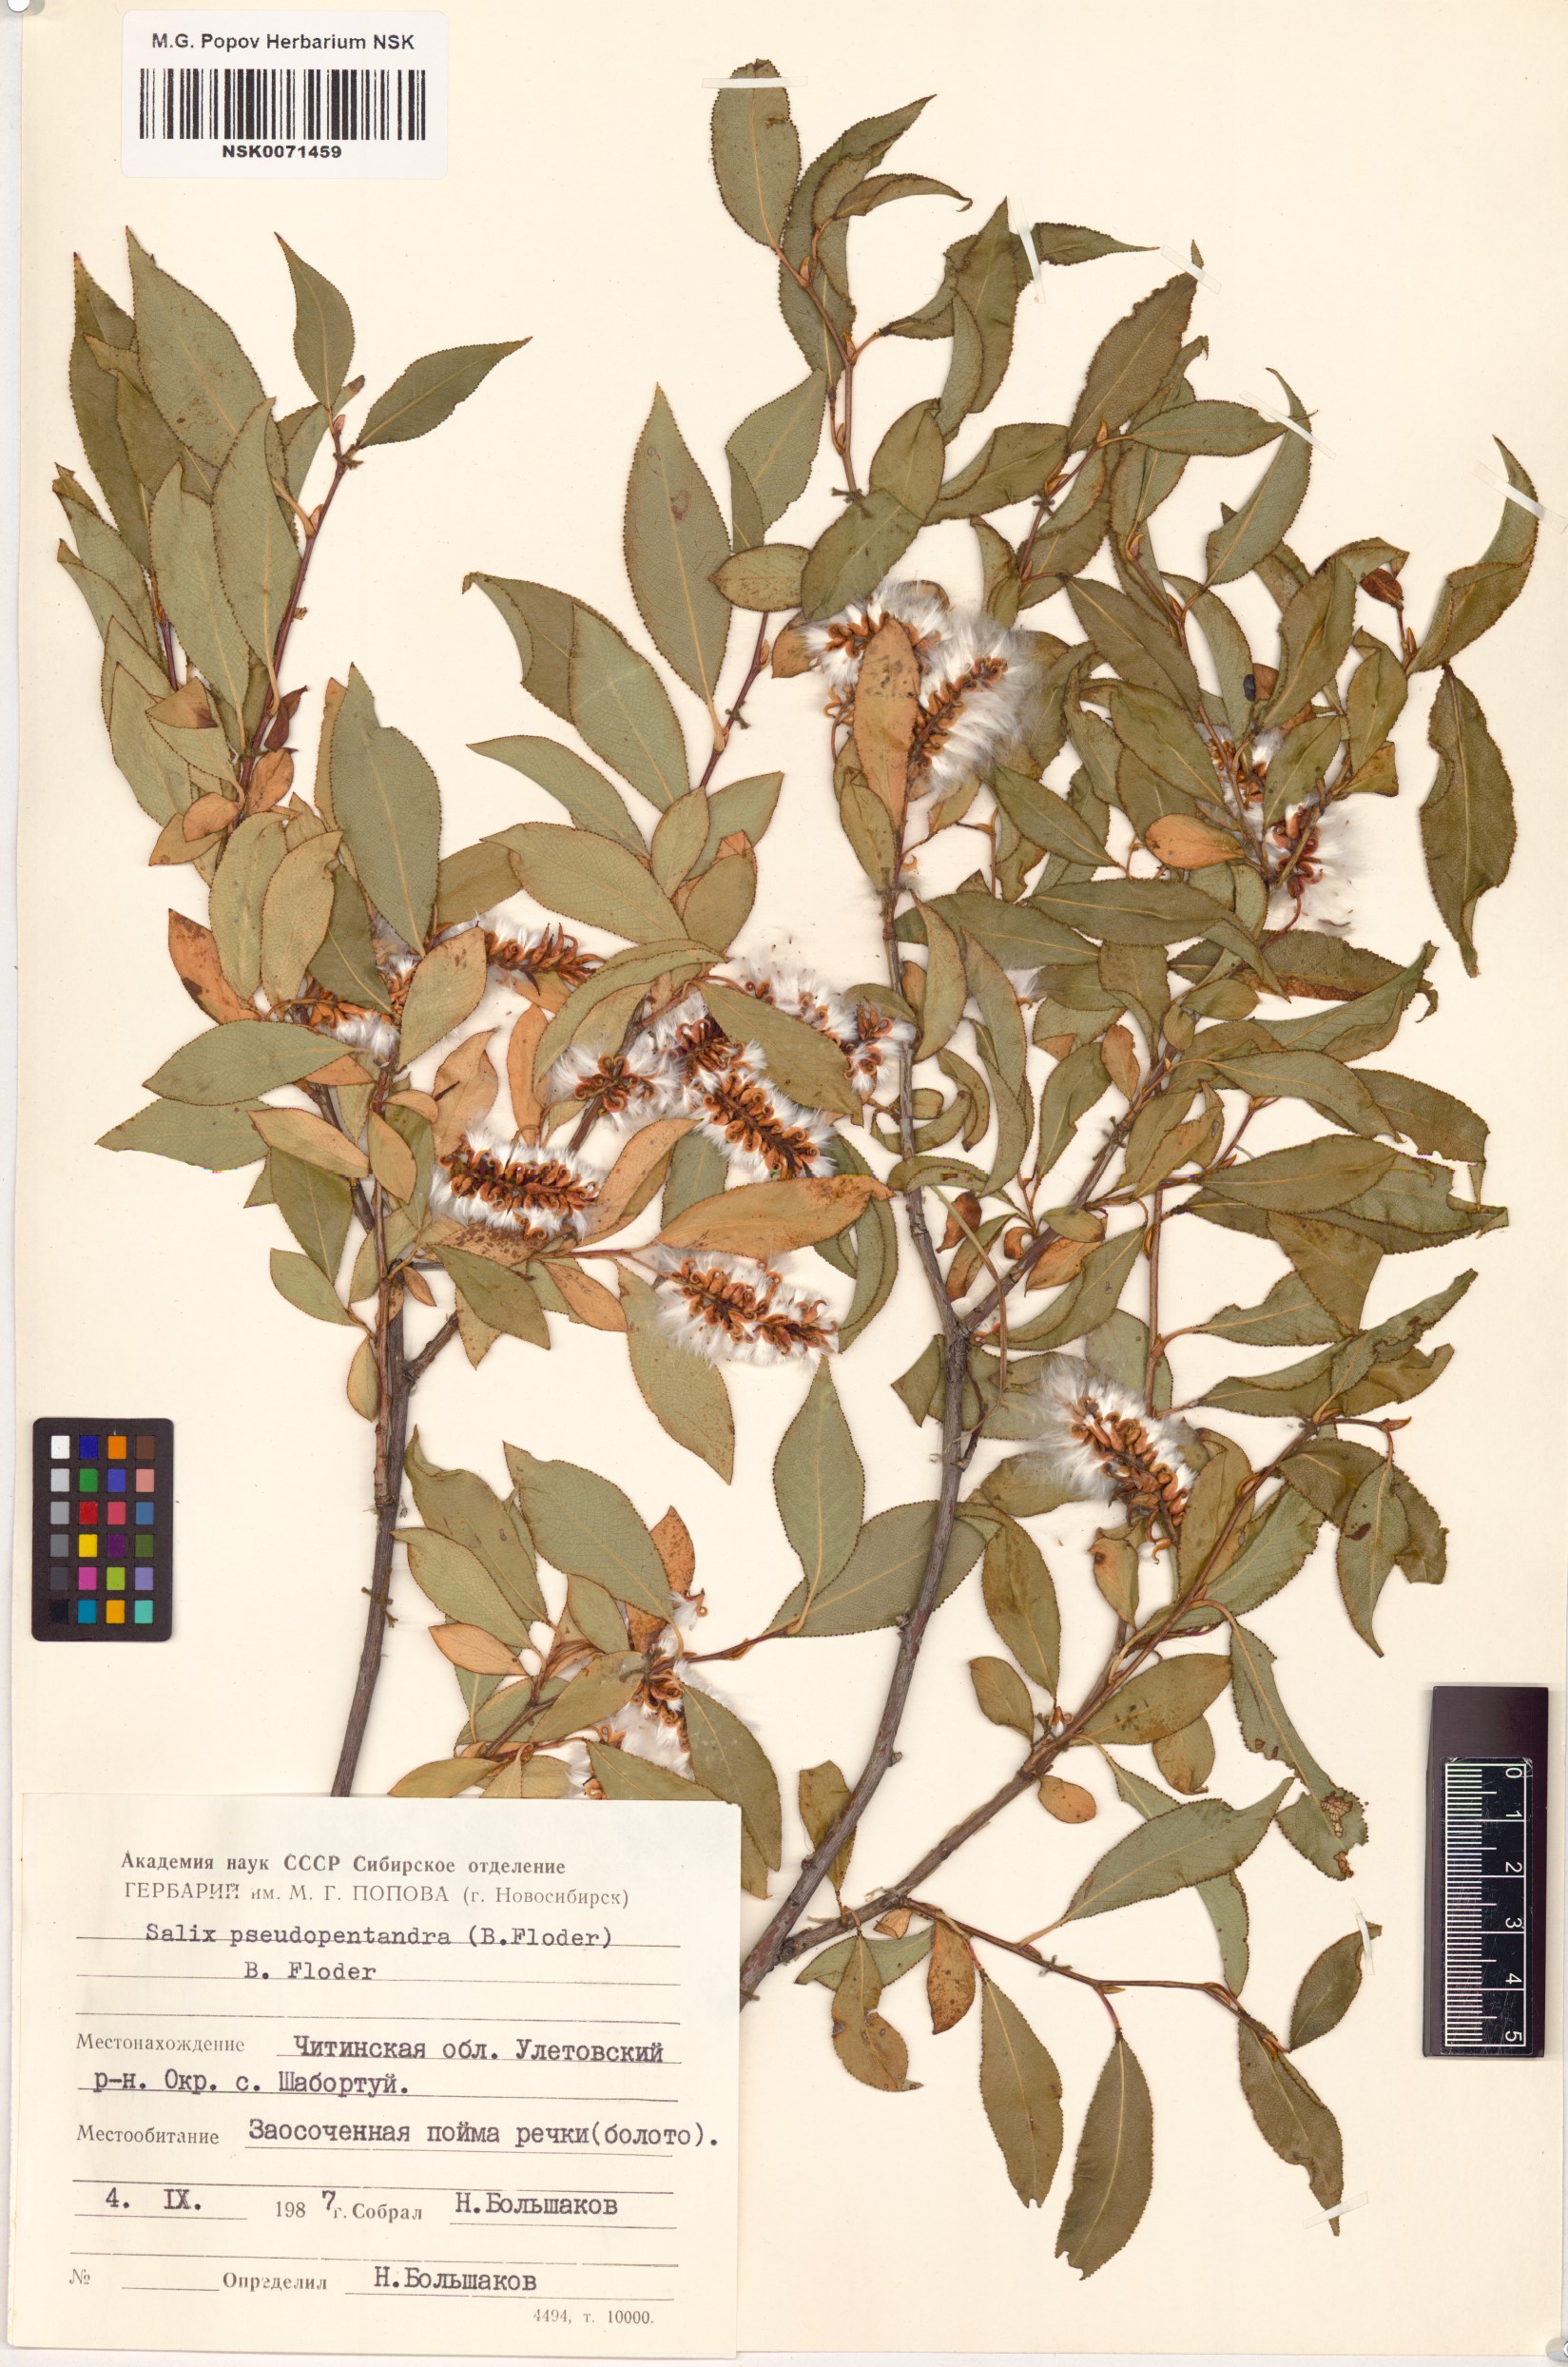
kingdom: Plantae
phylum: Tracheophyta
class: Magnoliopsida
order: Malpighiales
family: Salicaceae
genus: Salix
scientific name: Salix pseudopentandra
